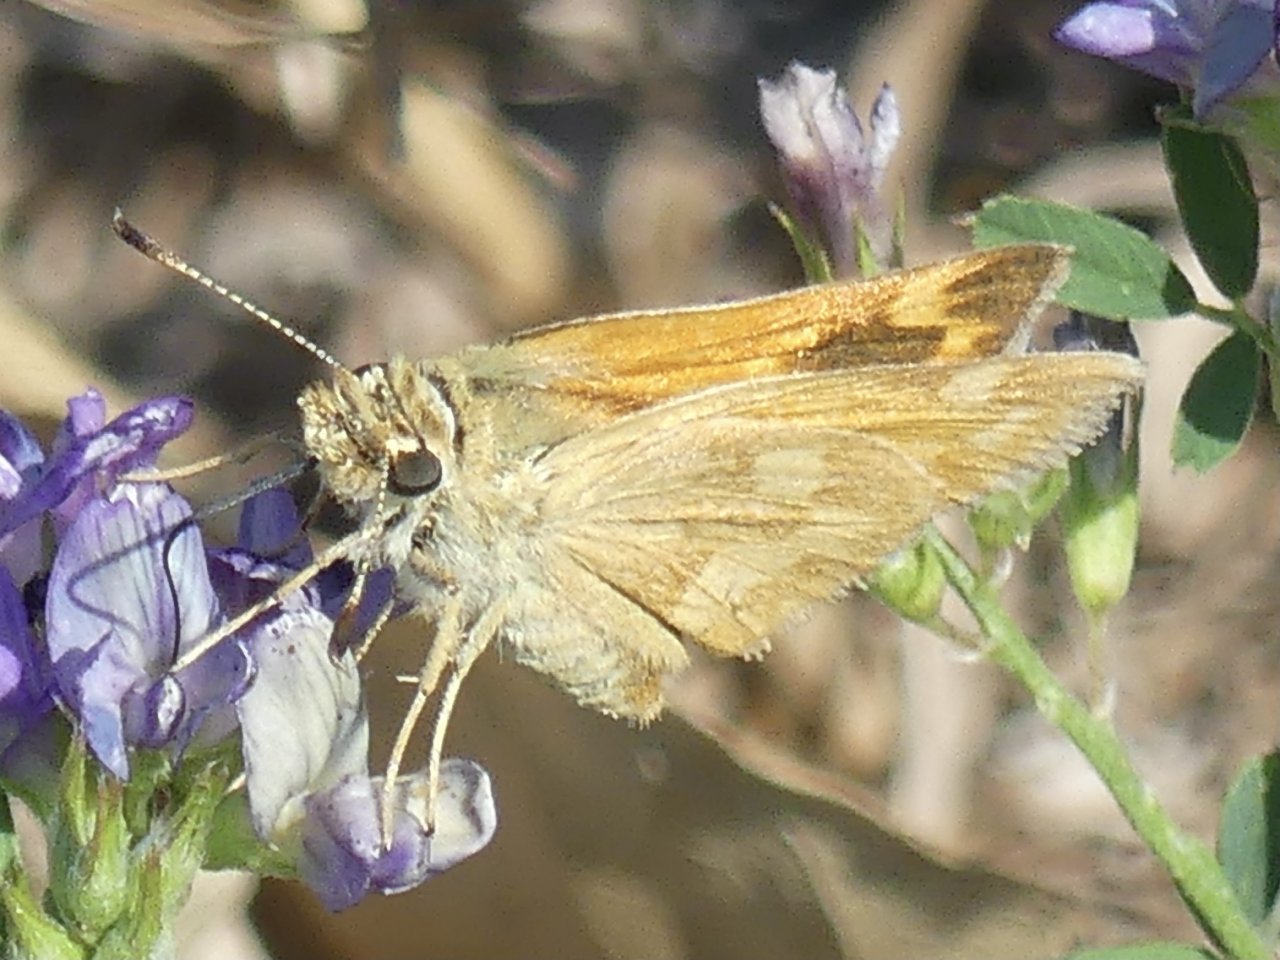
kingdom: Animalia
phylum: Arthropoda
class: Insecta
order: Lepidoptera
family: Hesperiidae
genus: Ochlodes
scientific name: Ochlodes sylvanoides
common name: Woodland Skipper
